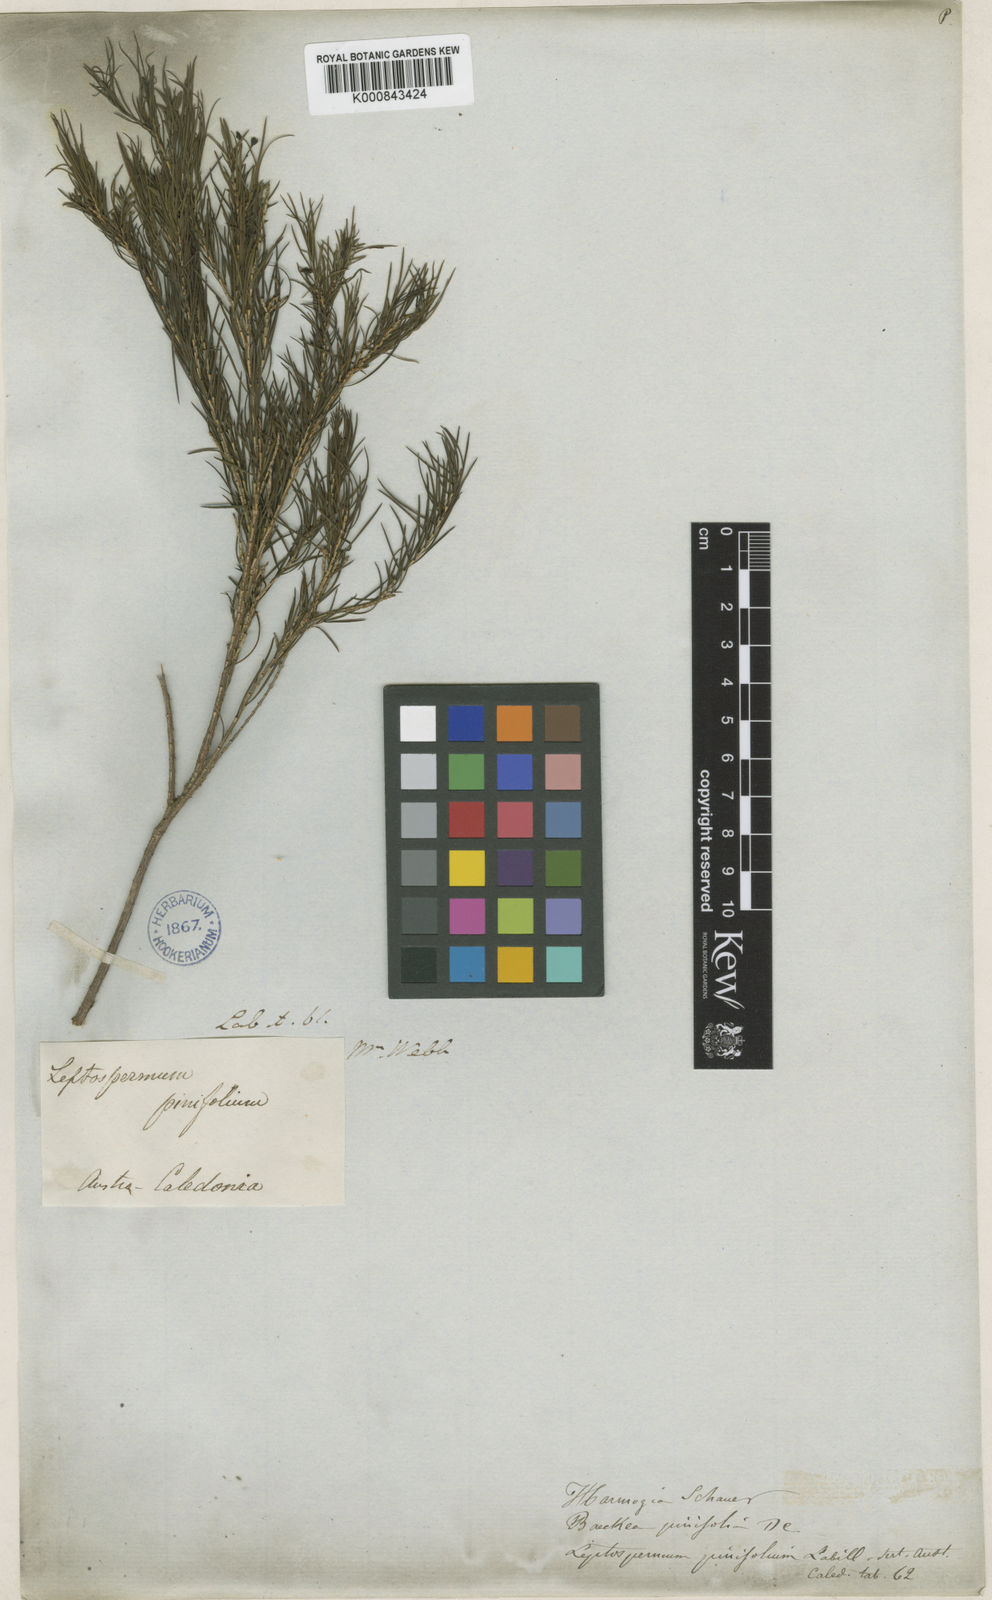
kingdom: Plantae
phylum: Tracheophyta
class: Magnoliopsida
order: Myrtales
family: Myrtaceae
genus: Sannantha
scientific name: Sannantha pinifolia
